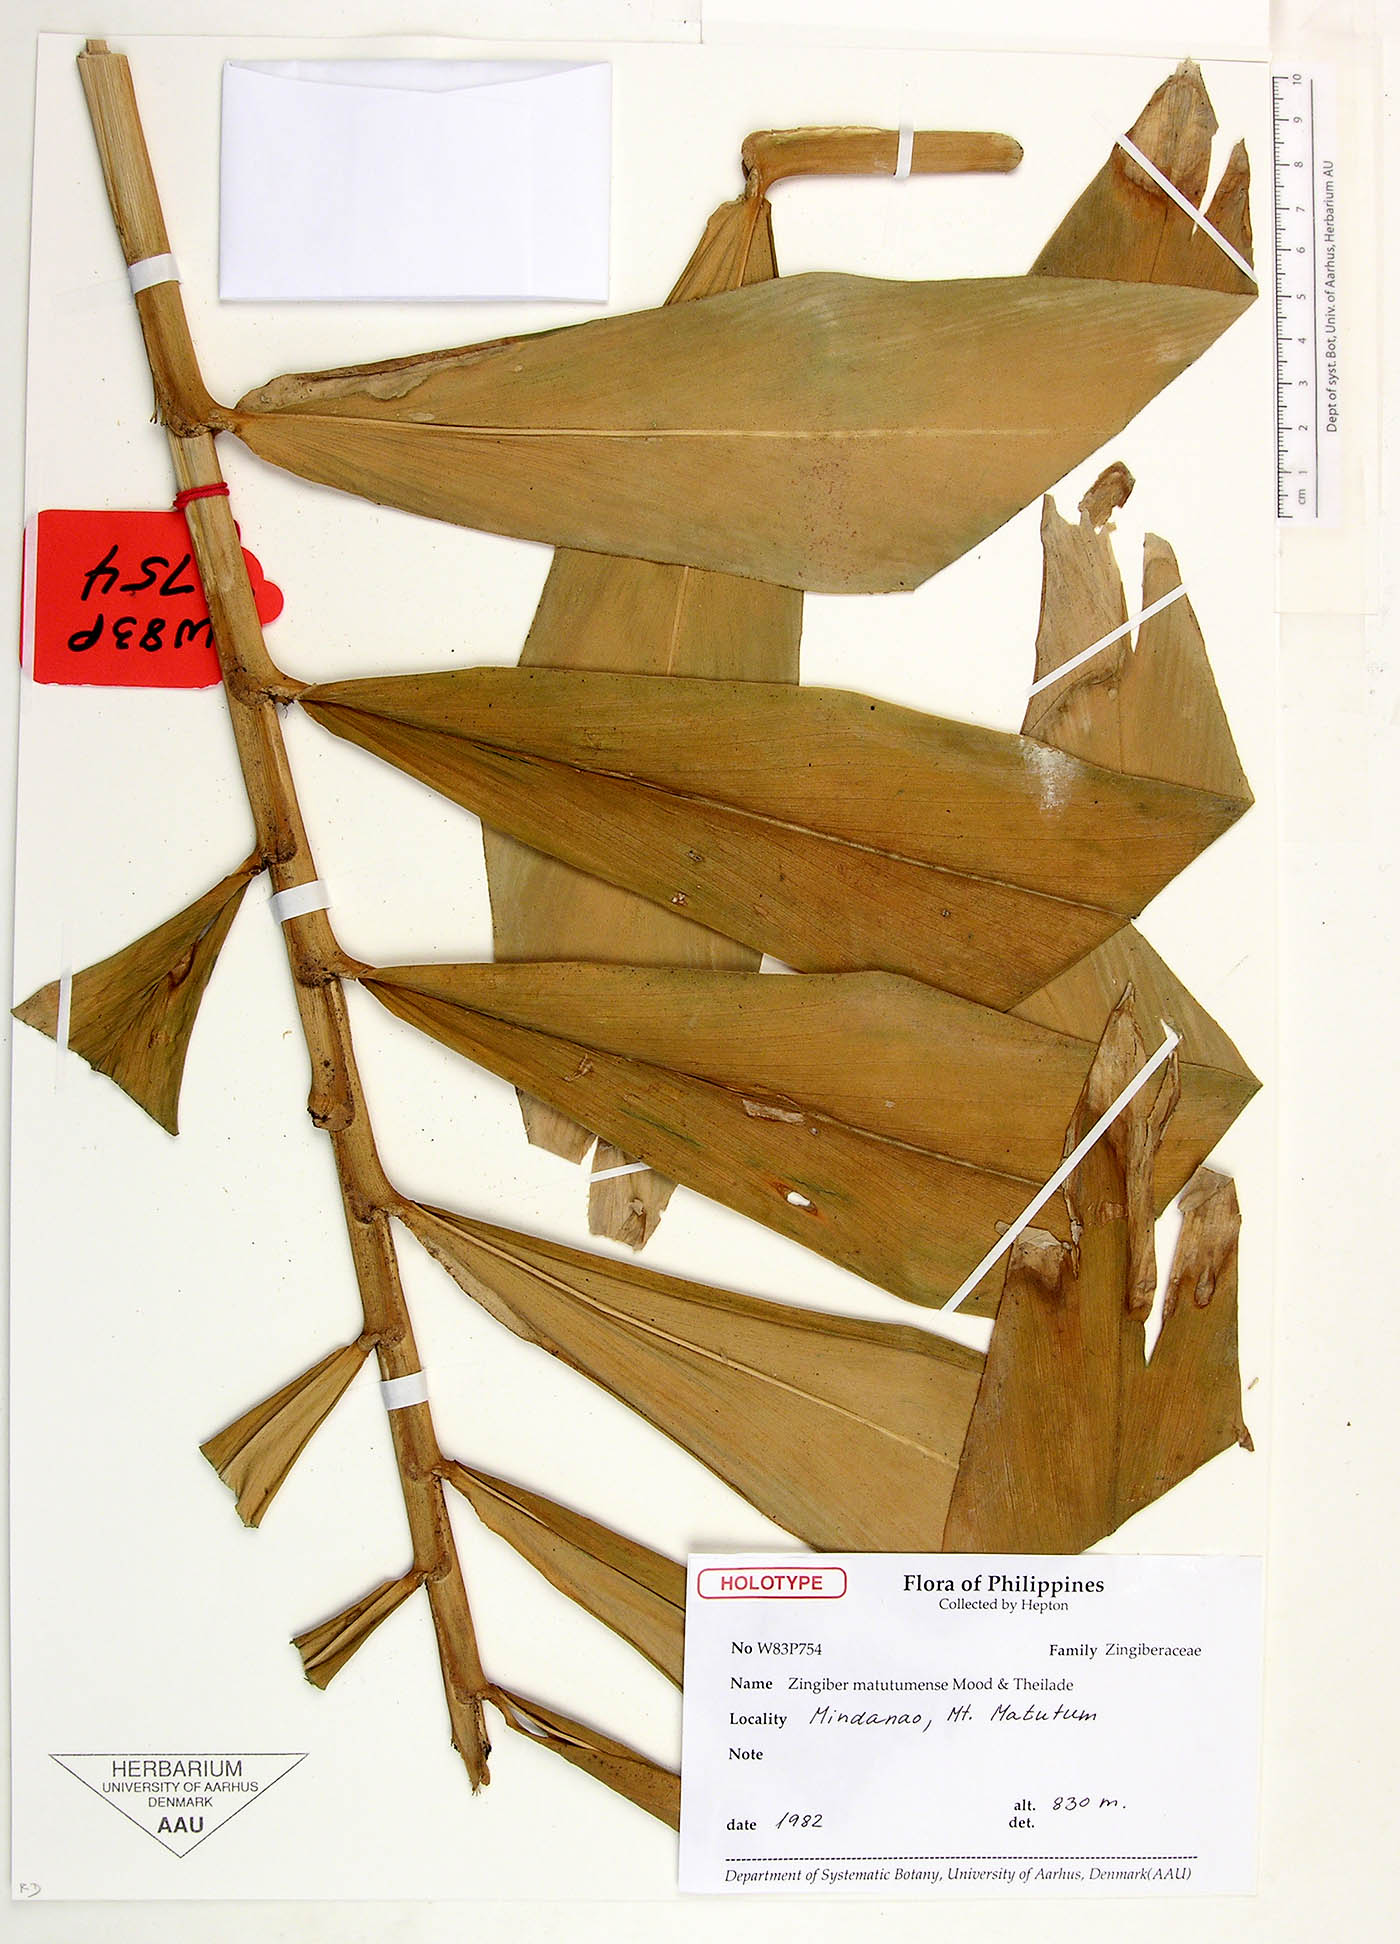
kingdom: Plantae
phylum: Tracheophyta
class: Liliopsida
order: Zingiberales
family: Zingiberaceae
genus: Zingiber
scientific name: Zingiber matutumense
